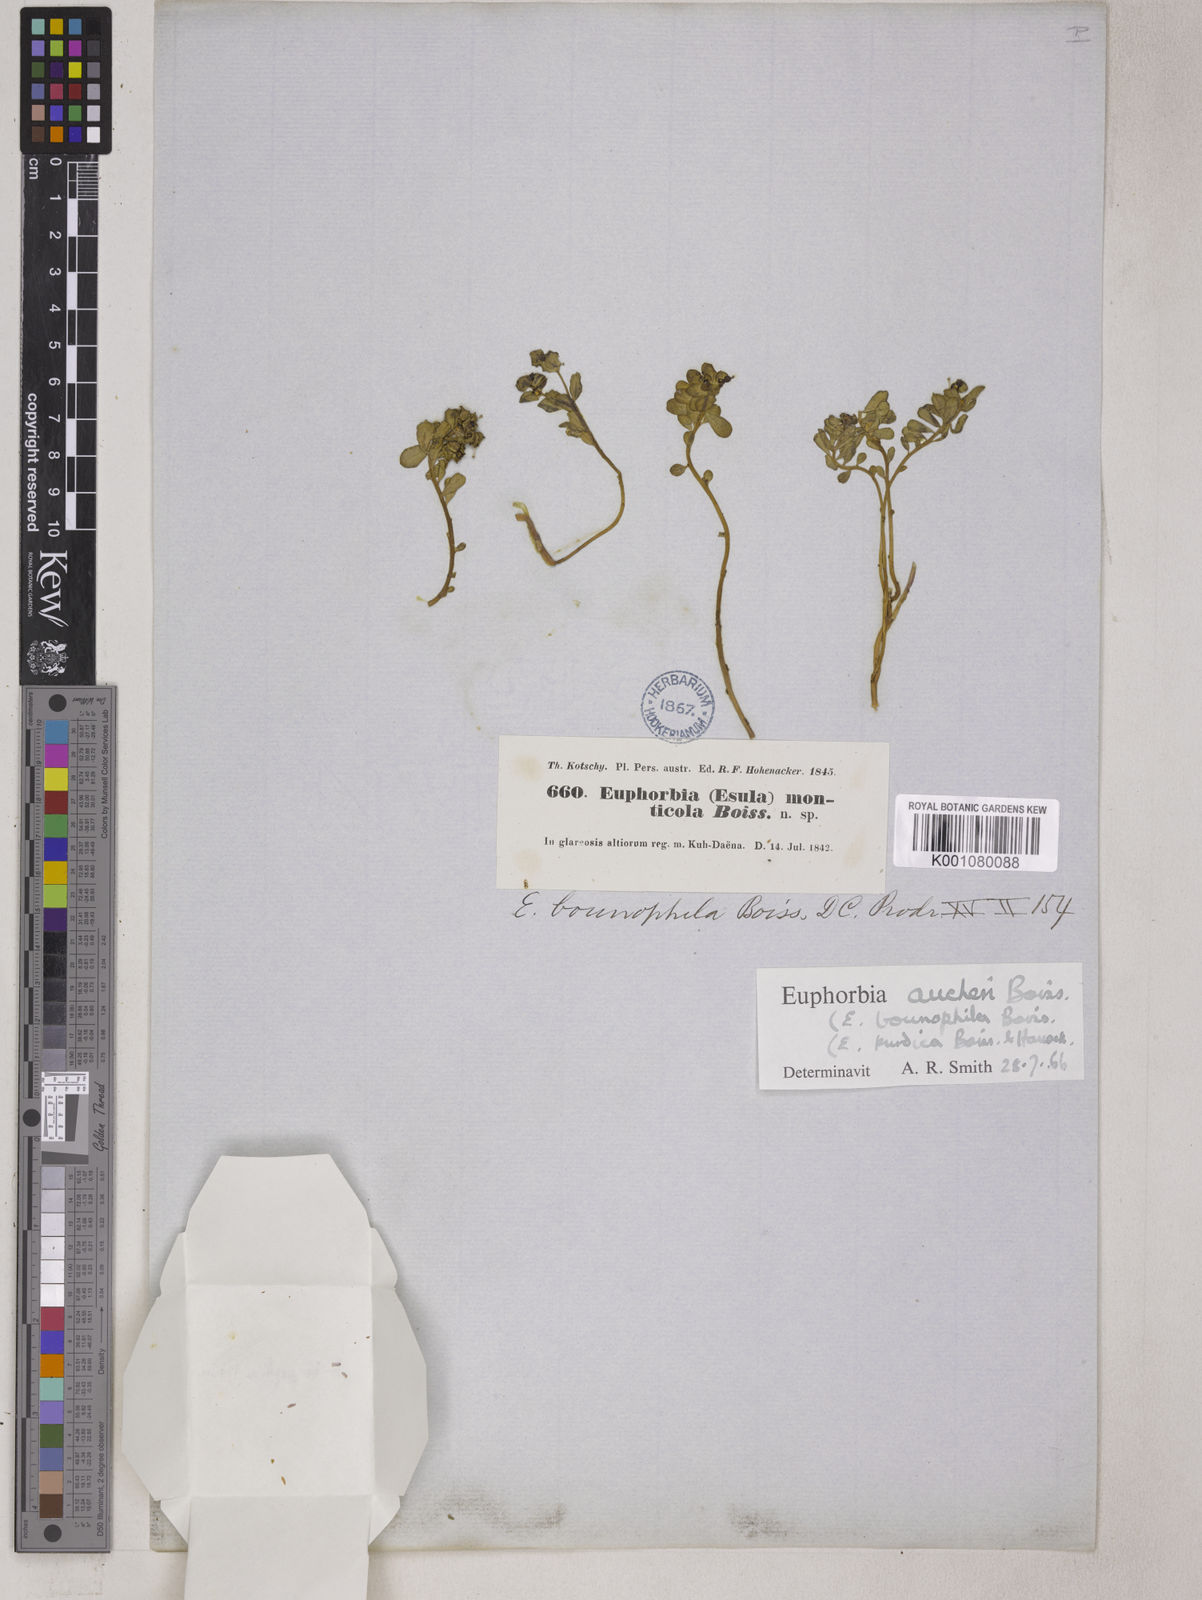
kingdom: Plantae
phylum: Tracheophyta
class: Magnoliopsida
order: Malpighiales
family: Euphorbiaceae
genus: Euphorbia
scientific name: Euphorbia aucheri
